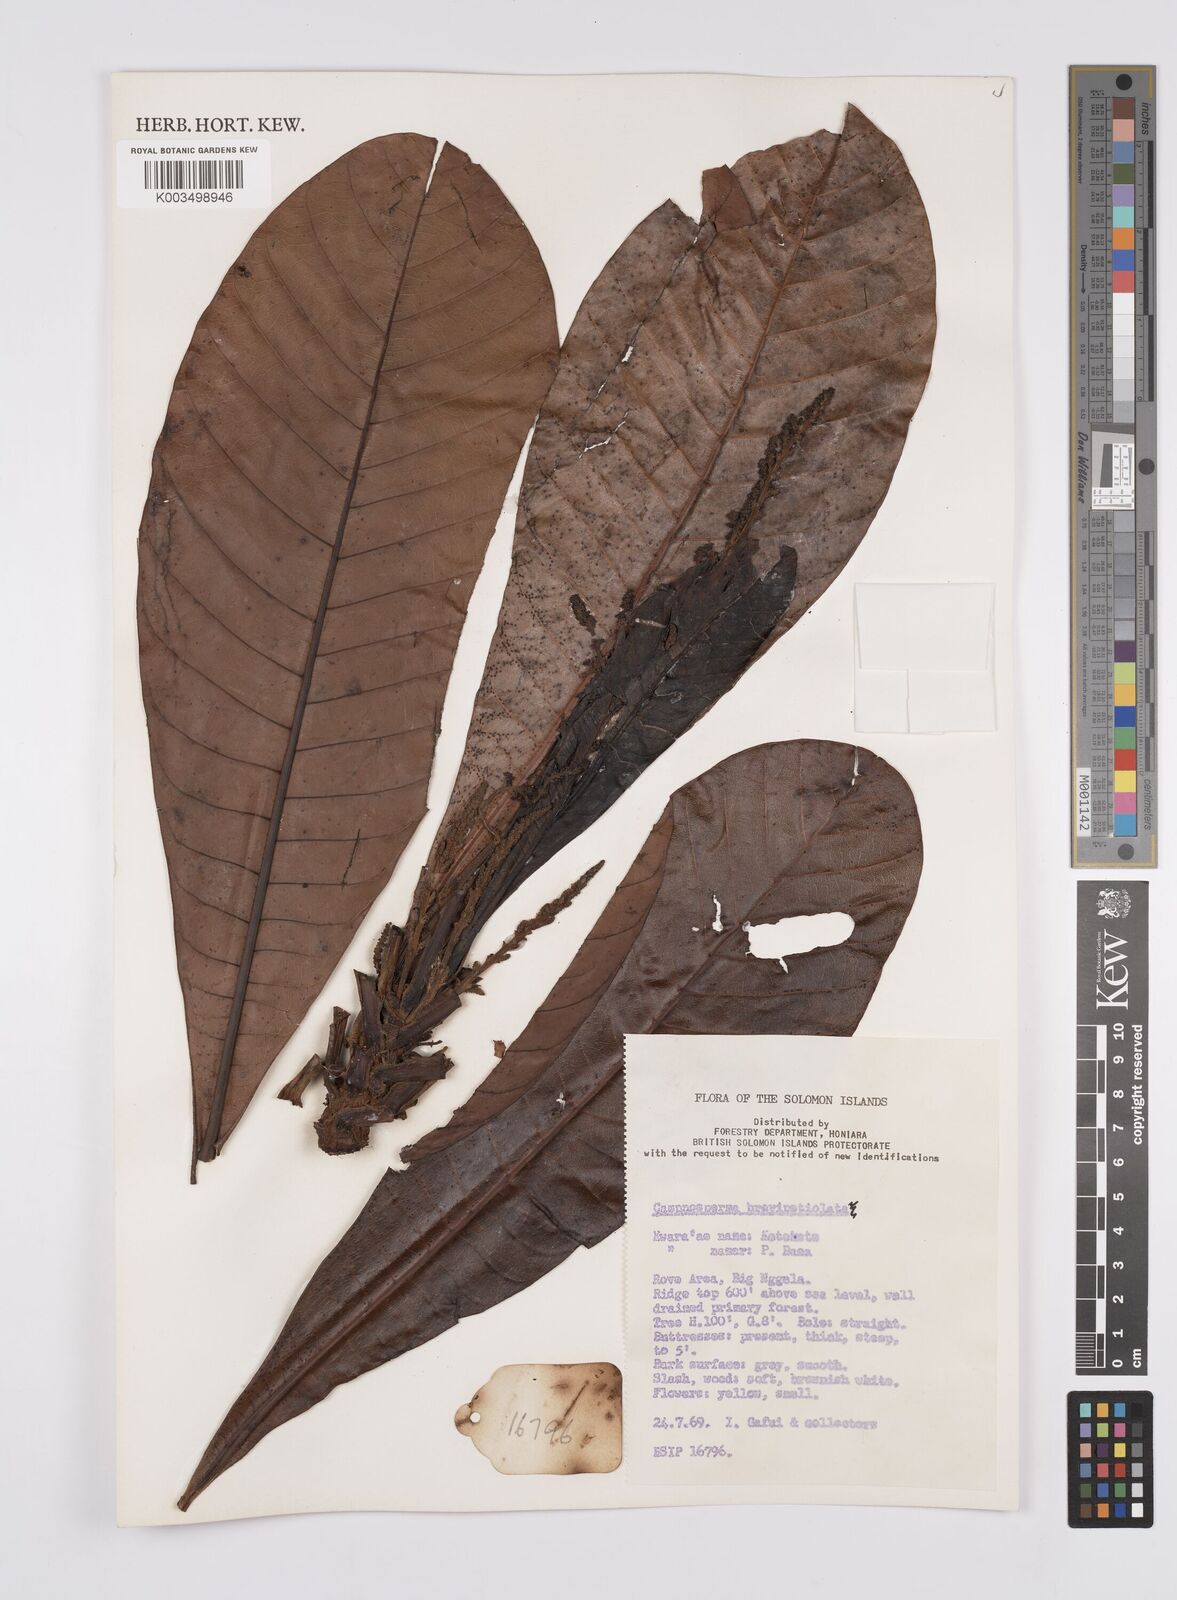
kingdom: Plantae
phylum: Tracheophyta
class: Magnoliopsida
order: Sapindales
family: Anacardiaceae
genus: Campnosperma
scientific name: Campnosperma brevipetiolatum
